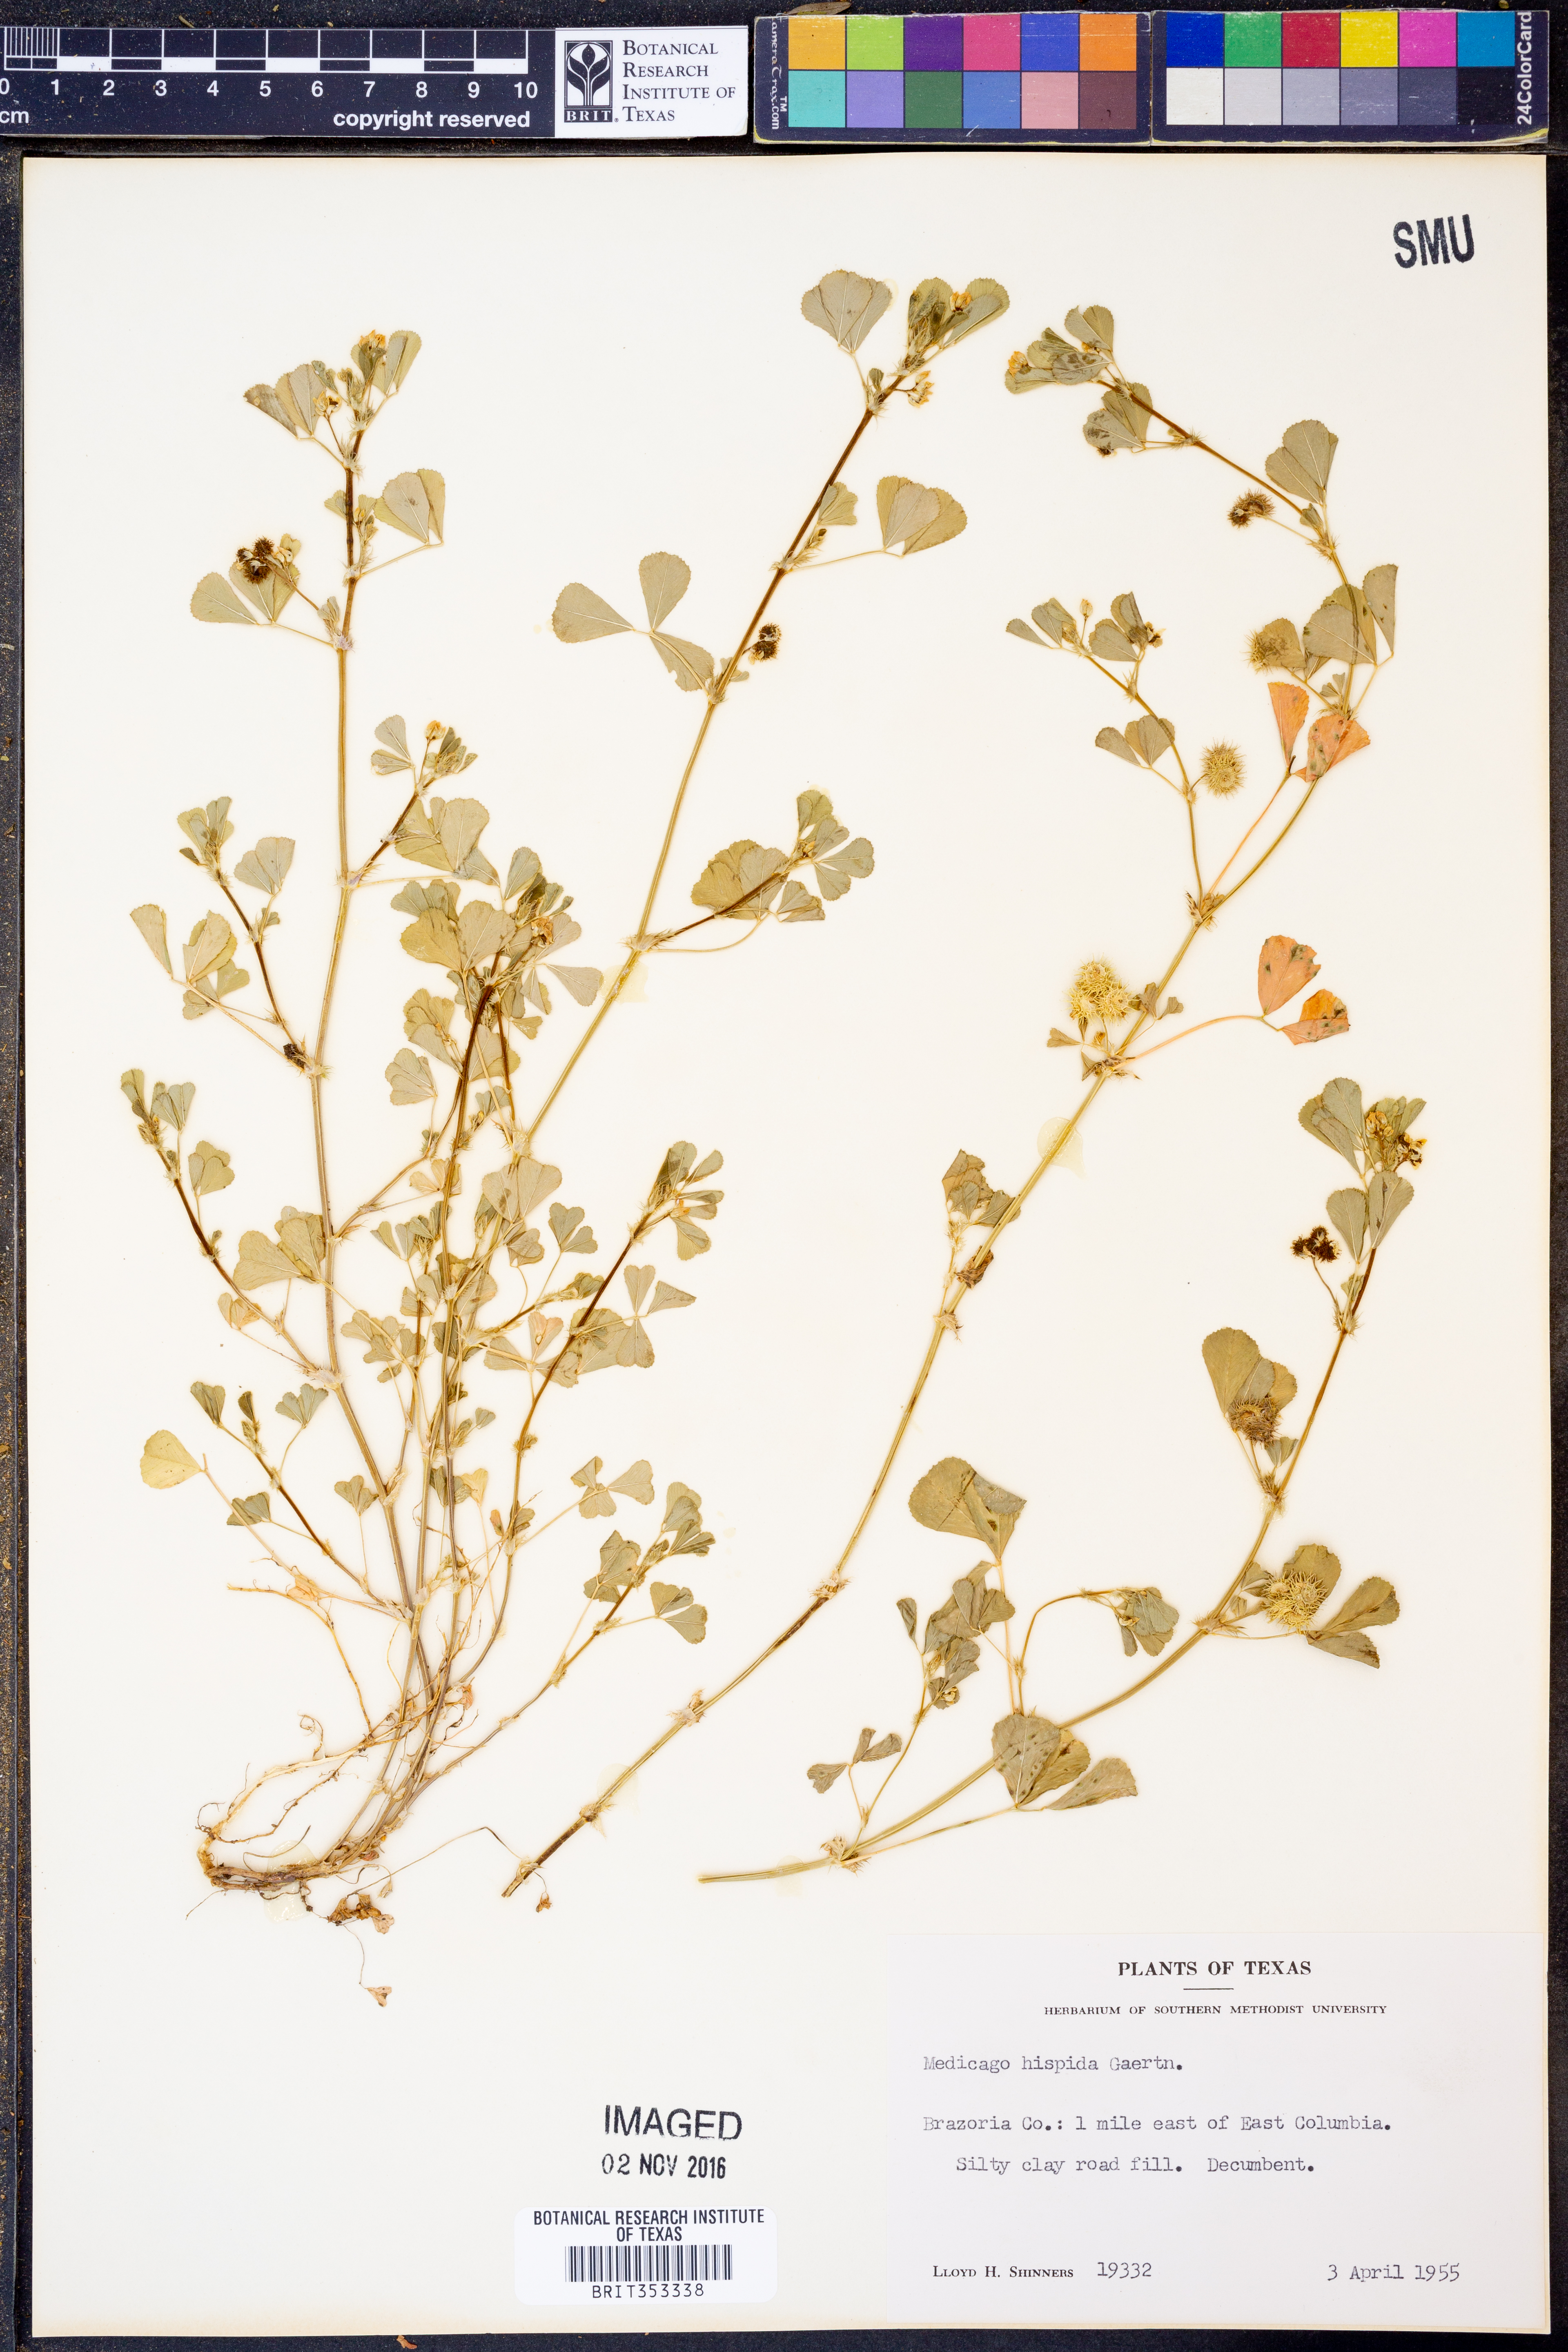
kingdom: Plantae
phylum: Tracheophyta
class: Magnoliopsida
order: Fabales
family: Fabaceae
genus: Medicago
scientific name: Medicago polymorpha
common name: Burclover
